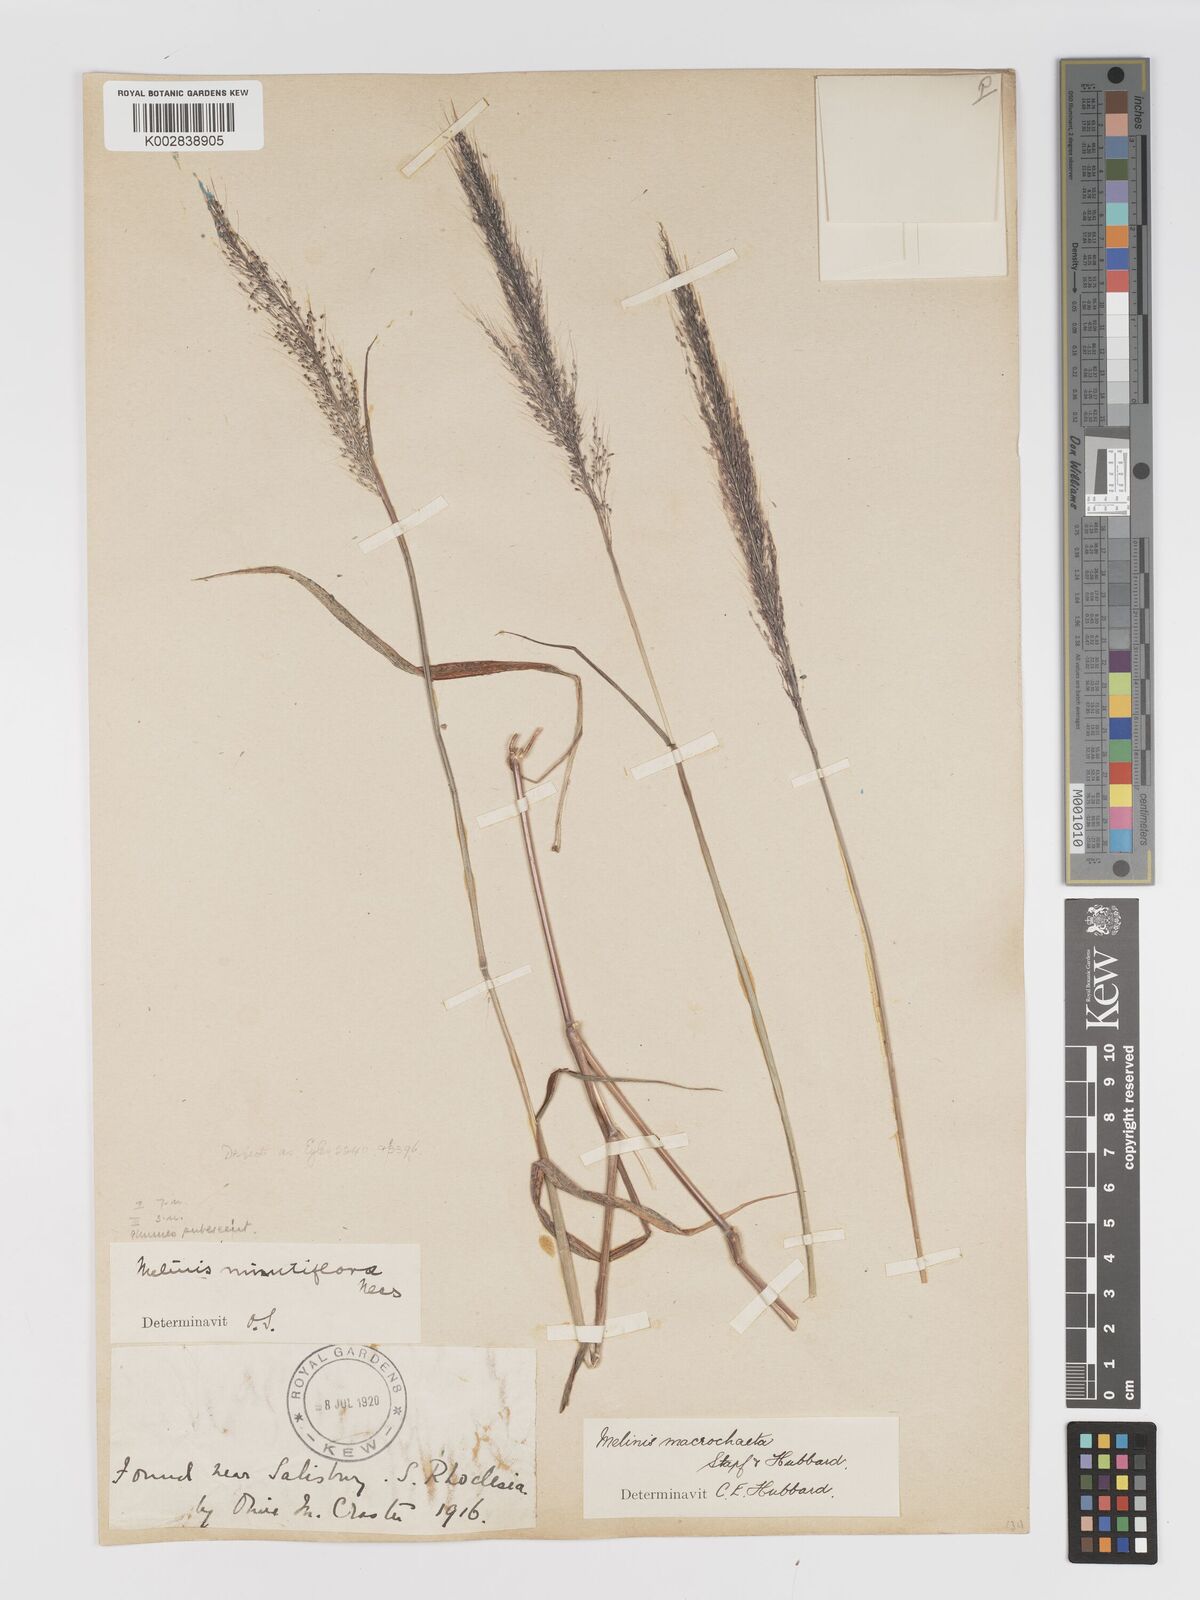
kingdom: Plantae
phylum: Tracheophyta
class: Liliopsida
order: Poales
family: Poaceae
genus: Melinis
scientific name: Melinis macrochaeta
